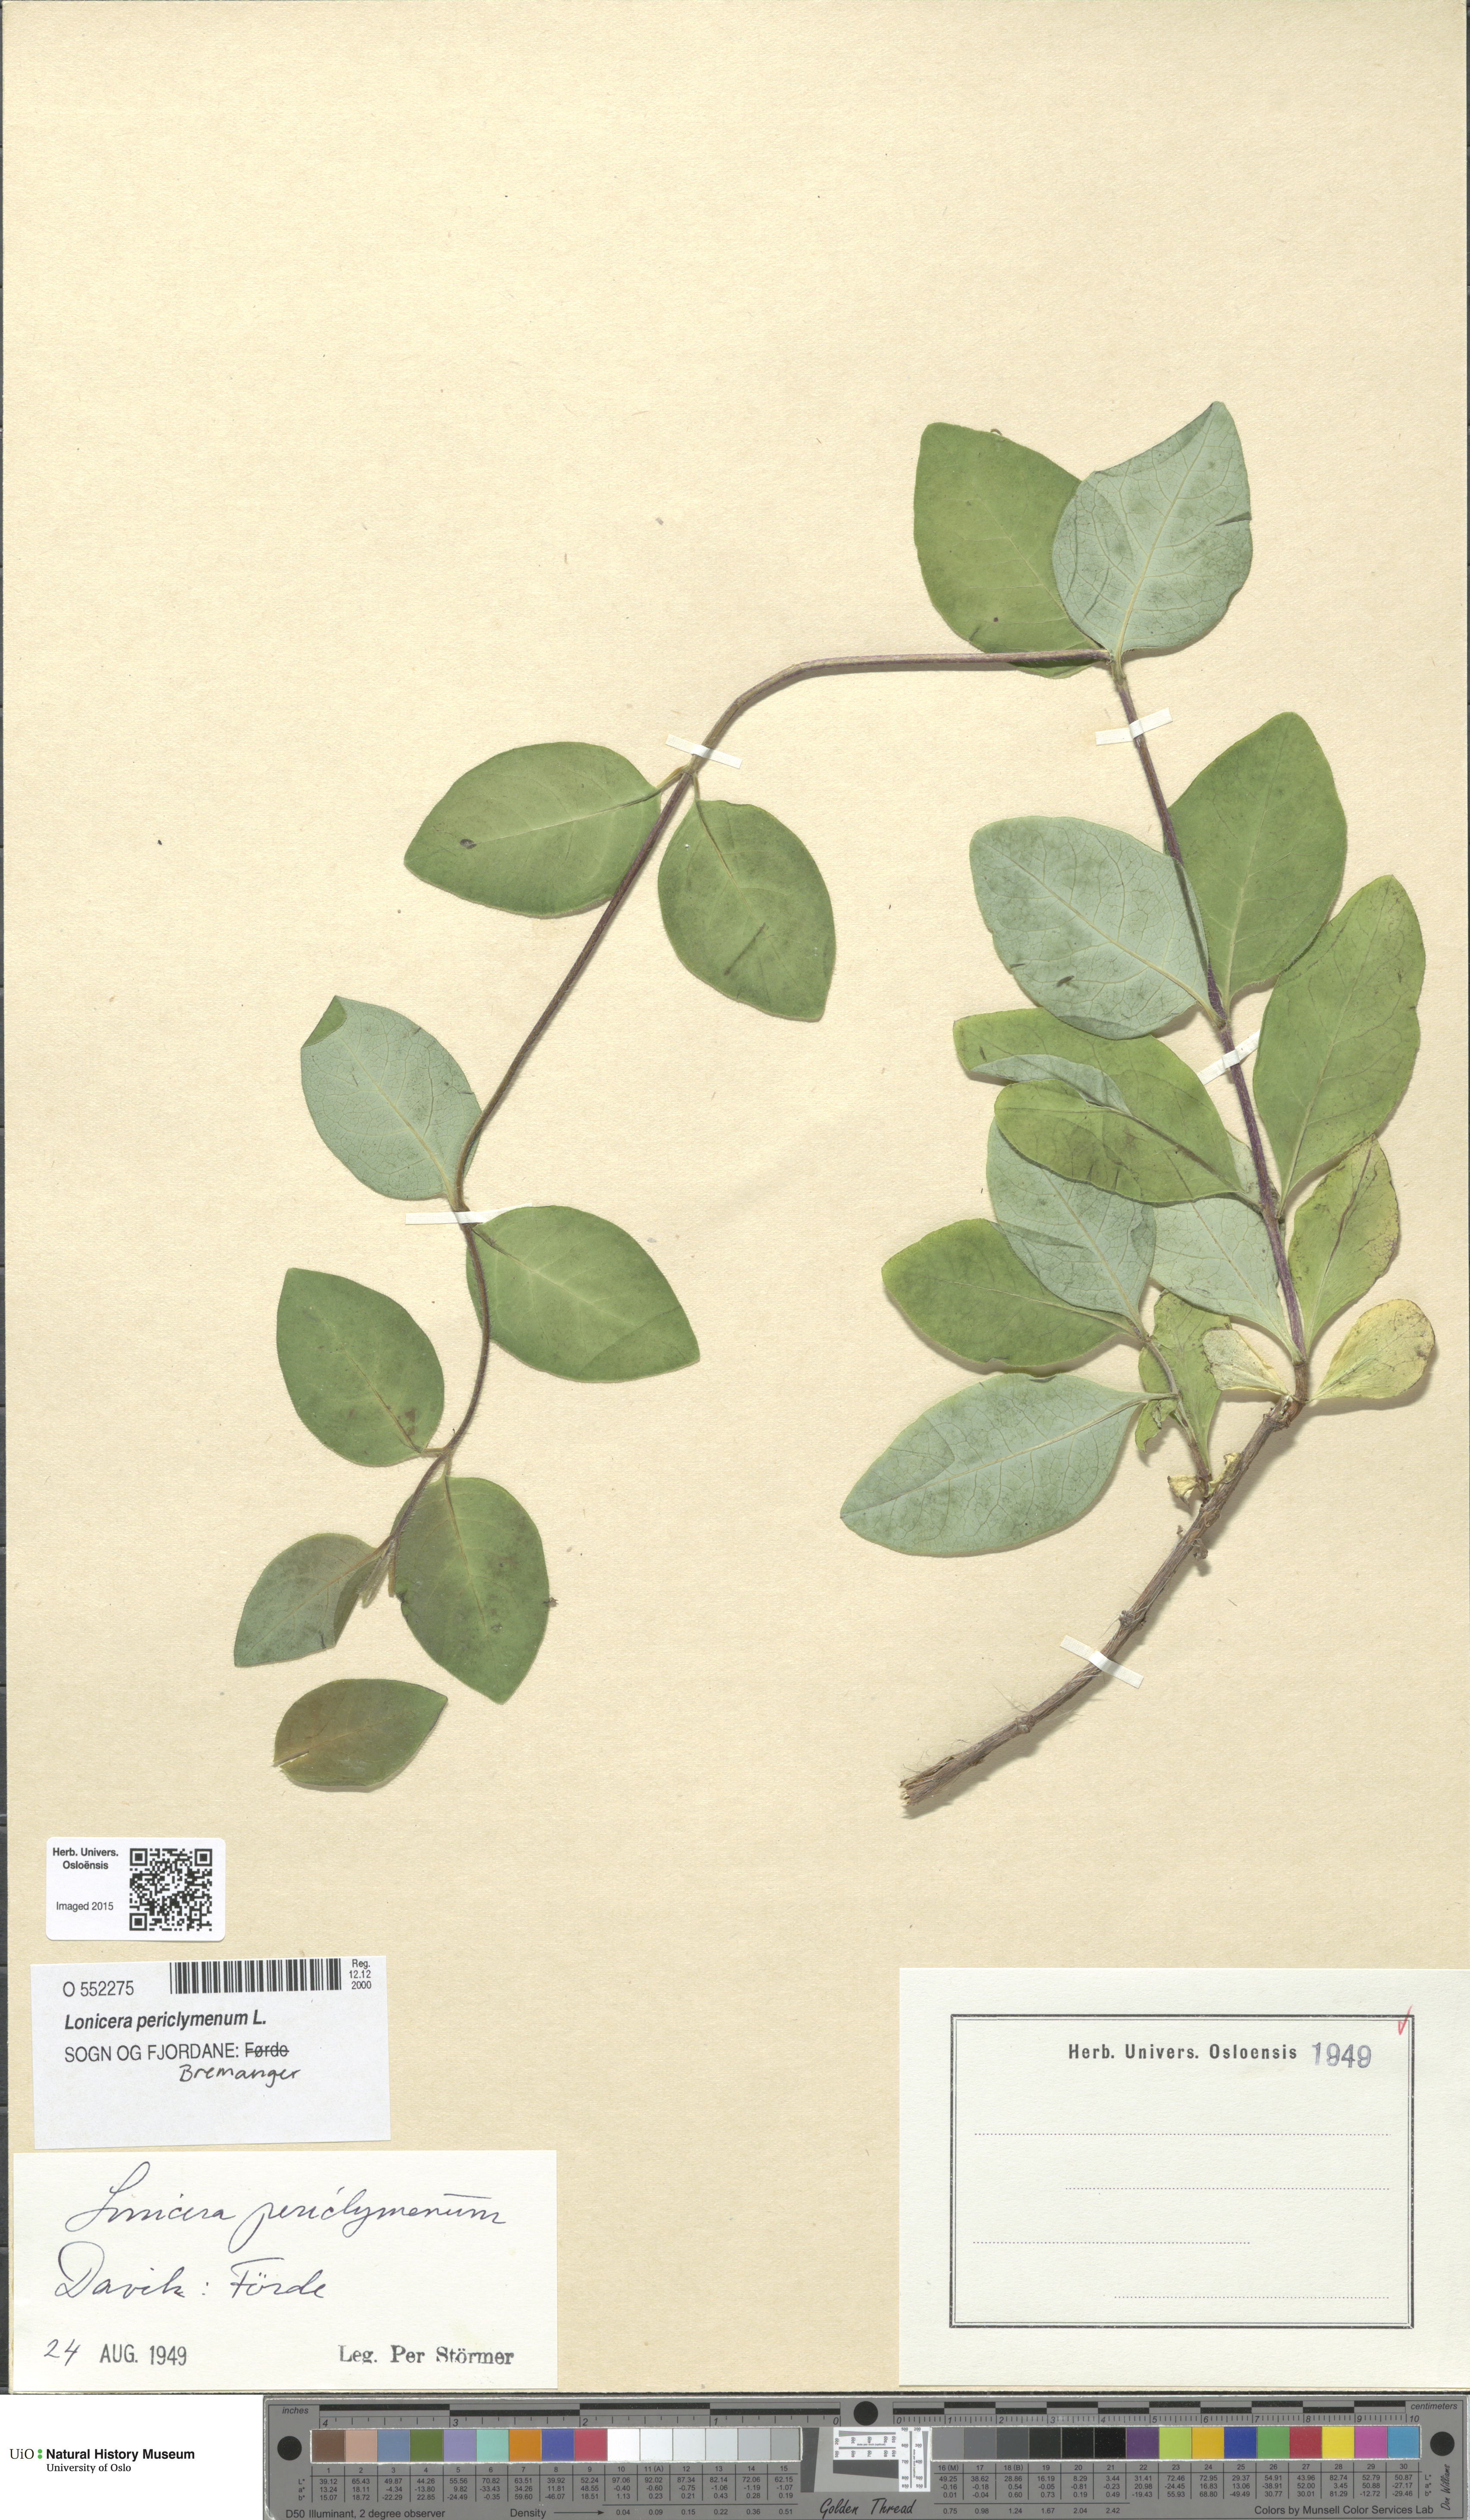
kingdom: Plantae
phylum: Tracheophyta
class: Magnoliopsida
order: Dipsacales
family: Caprifoliaceae
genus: Lonicera
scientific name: Lonicera periclymenum
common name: European honeysuckle
